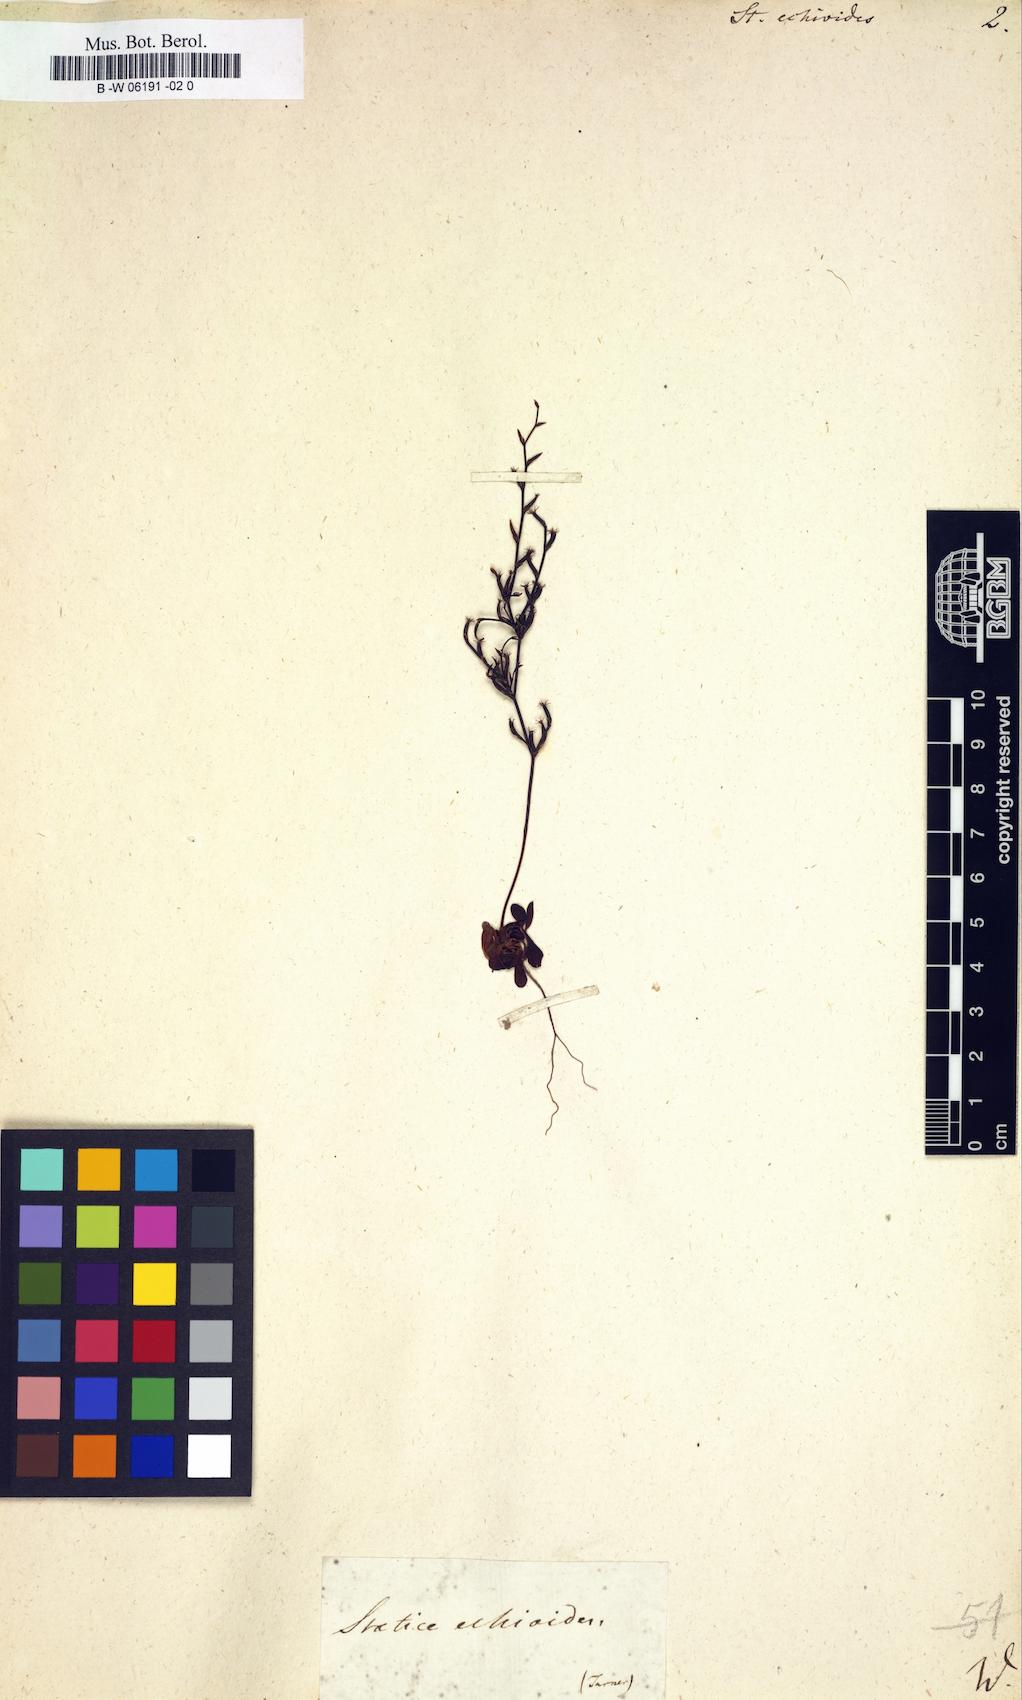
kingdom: Plantae
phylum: Tracheophyta
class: Magnoliopsida
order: Caryophyllales
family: Plumbaginaceae
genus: Limonium
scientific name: Limonium
